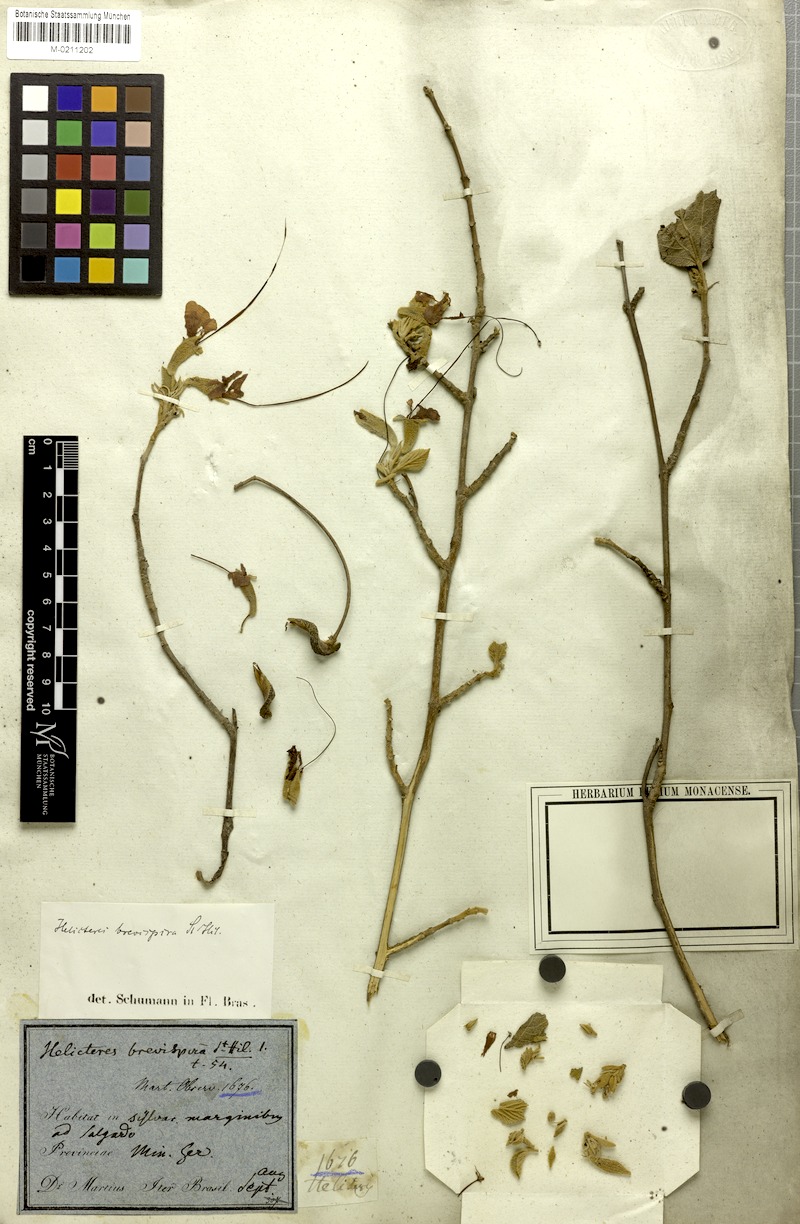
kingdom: Plantae
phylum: Tracheophyta
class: Magnoliopsida
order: Malvales
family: Malvaceae
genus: Helicteres
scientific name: Helicteres brevispira
